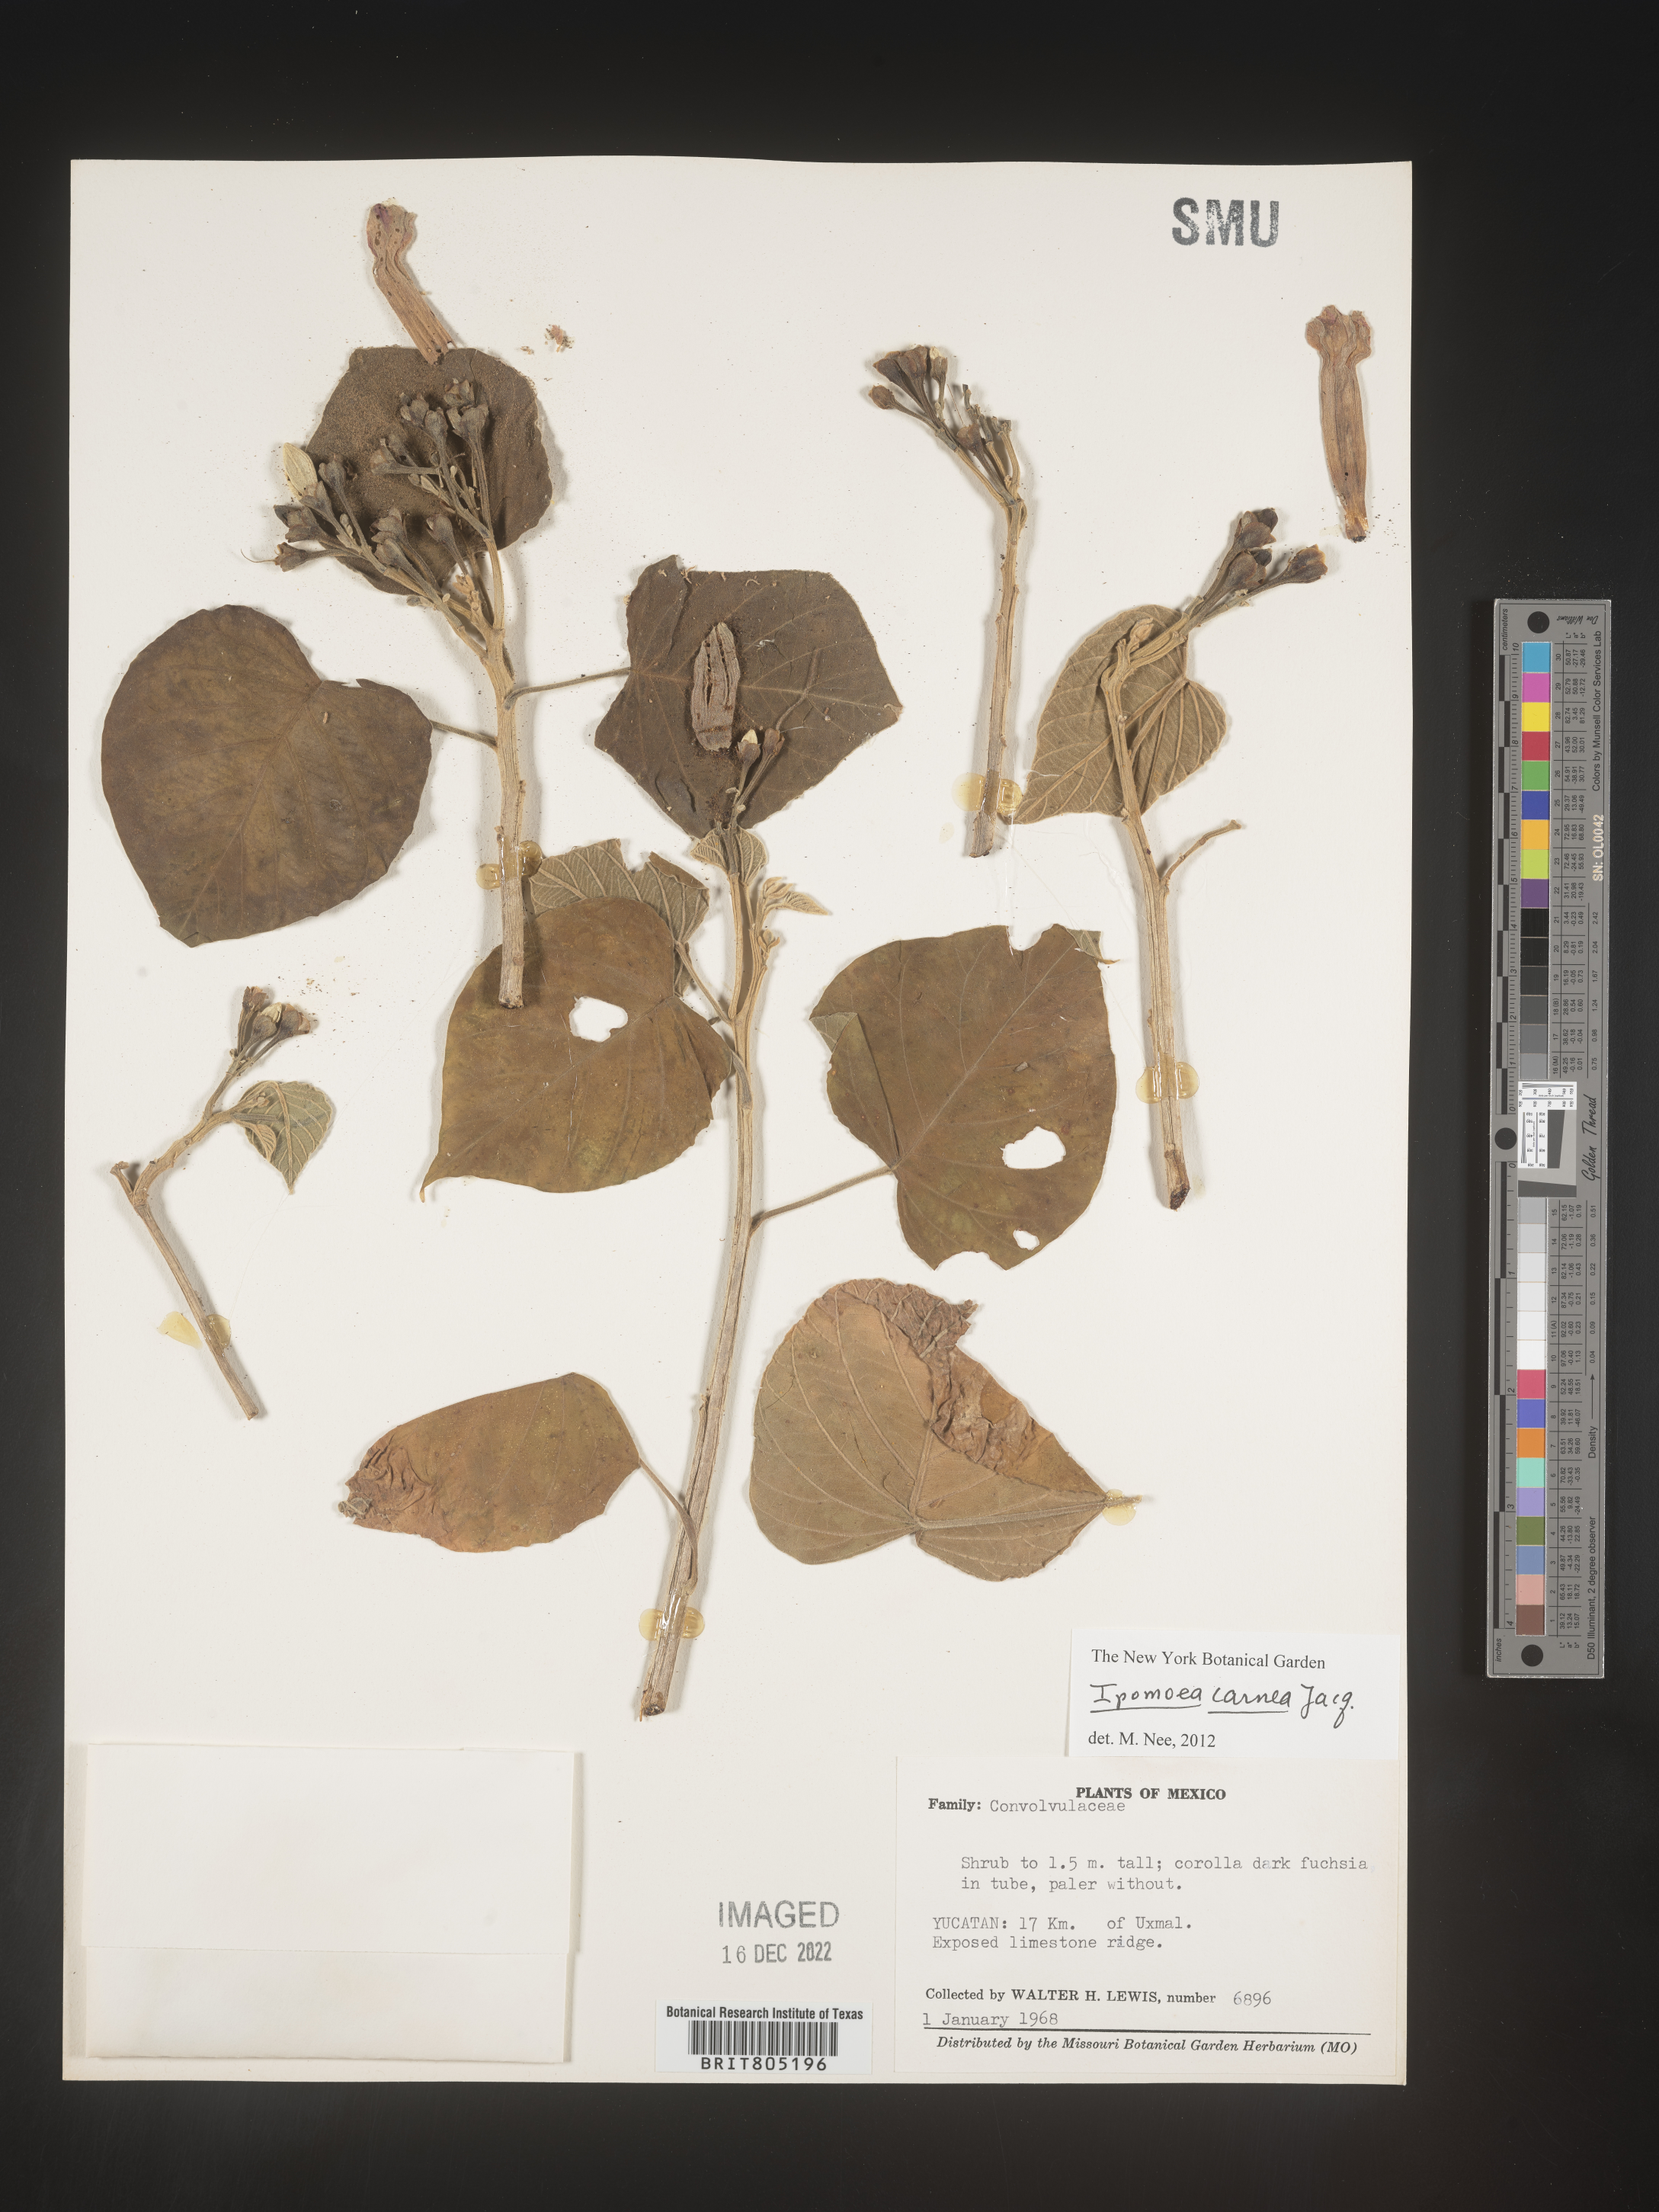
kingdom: Plantae
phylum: Tracheophyta
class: Magnoliopsida
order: Solanales
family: Convolvulaceae
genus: Ipomoea
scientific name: Ipomoea
